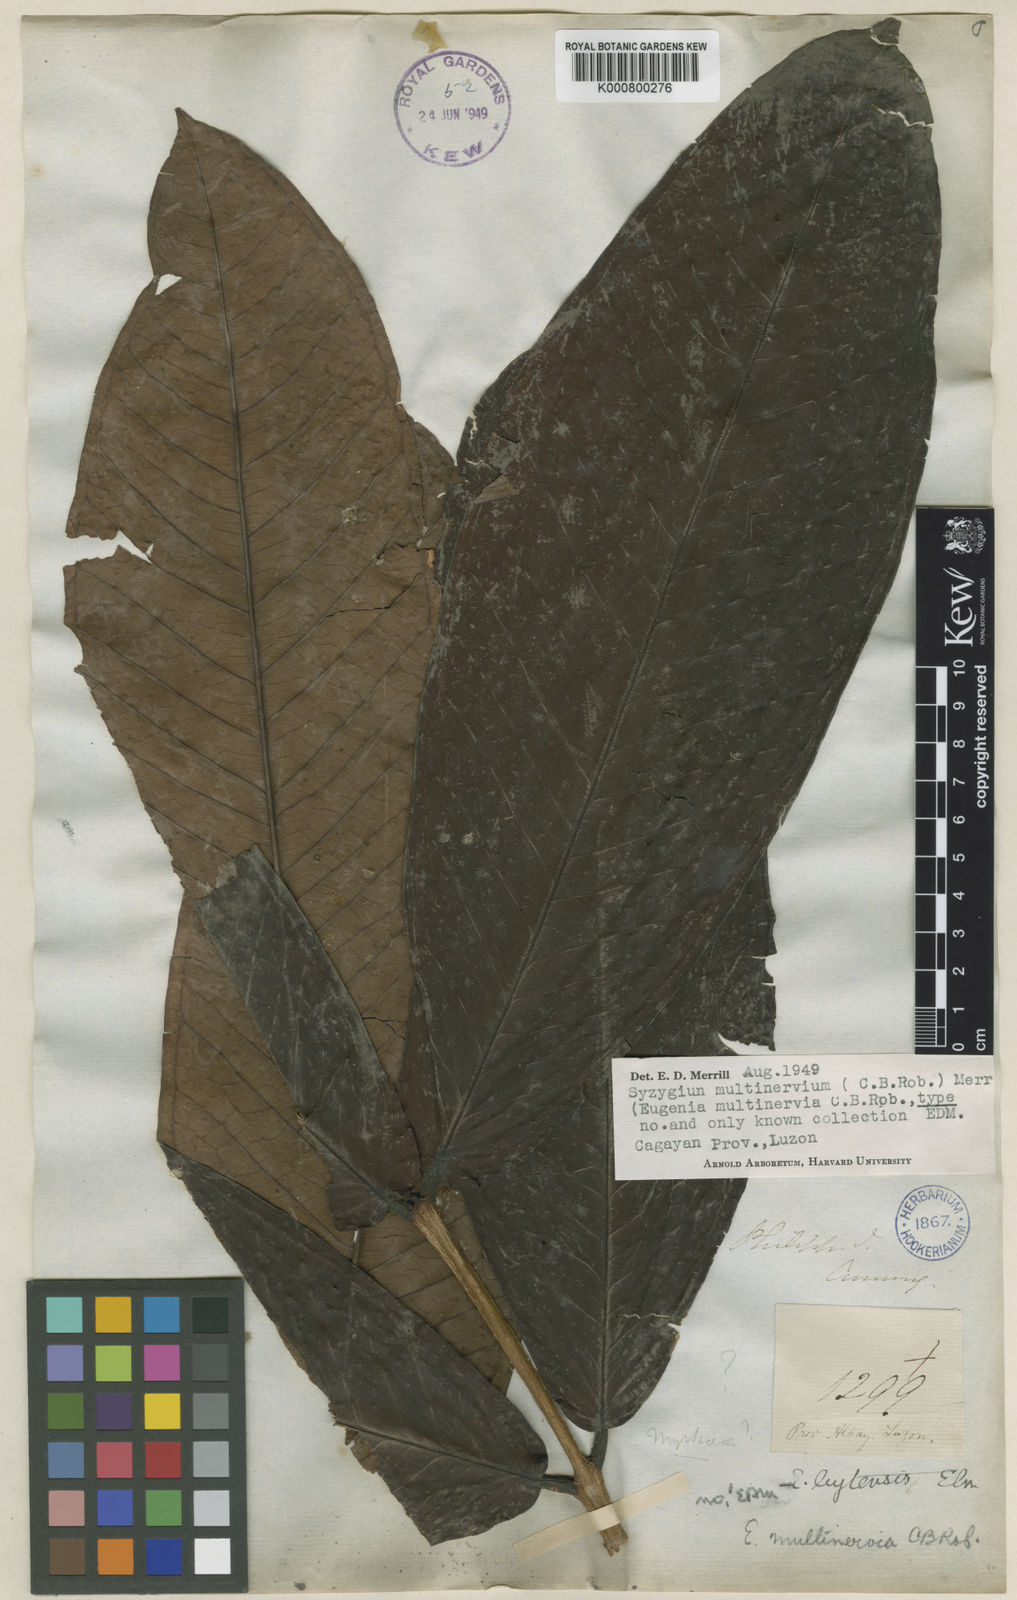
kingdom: Plantae
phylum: Tracheophyta
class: Magnoliopsida
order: Myrtales
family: Myrtaceae
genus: Syzygium
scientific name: Syzygium
